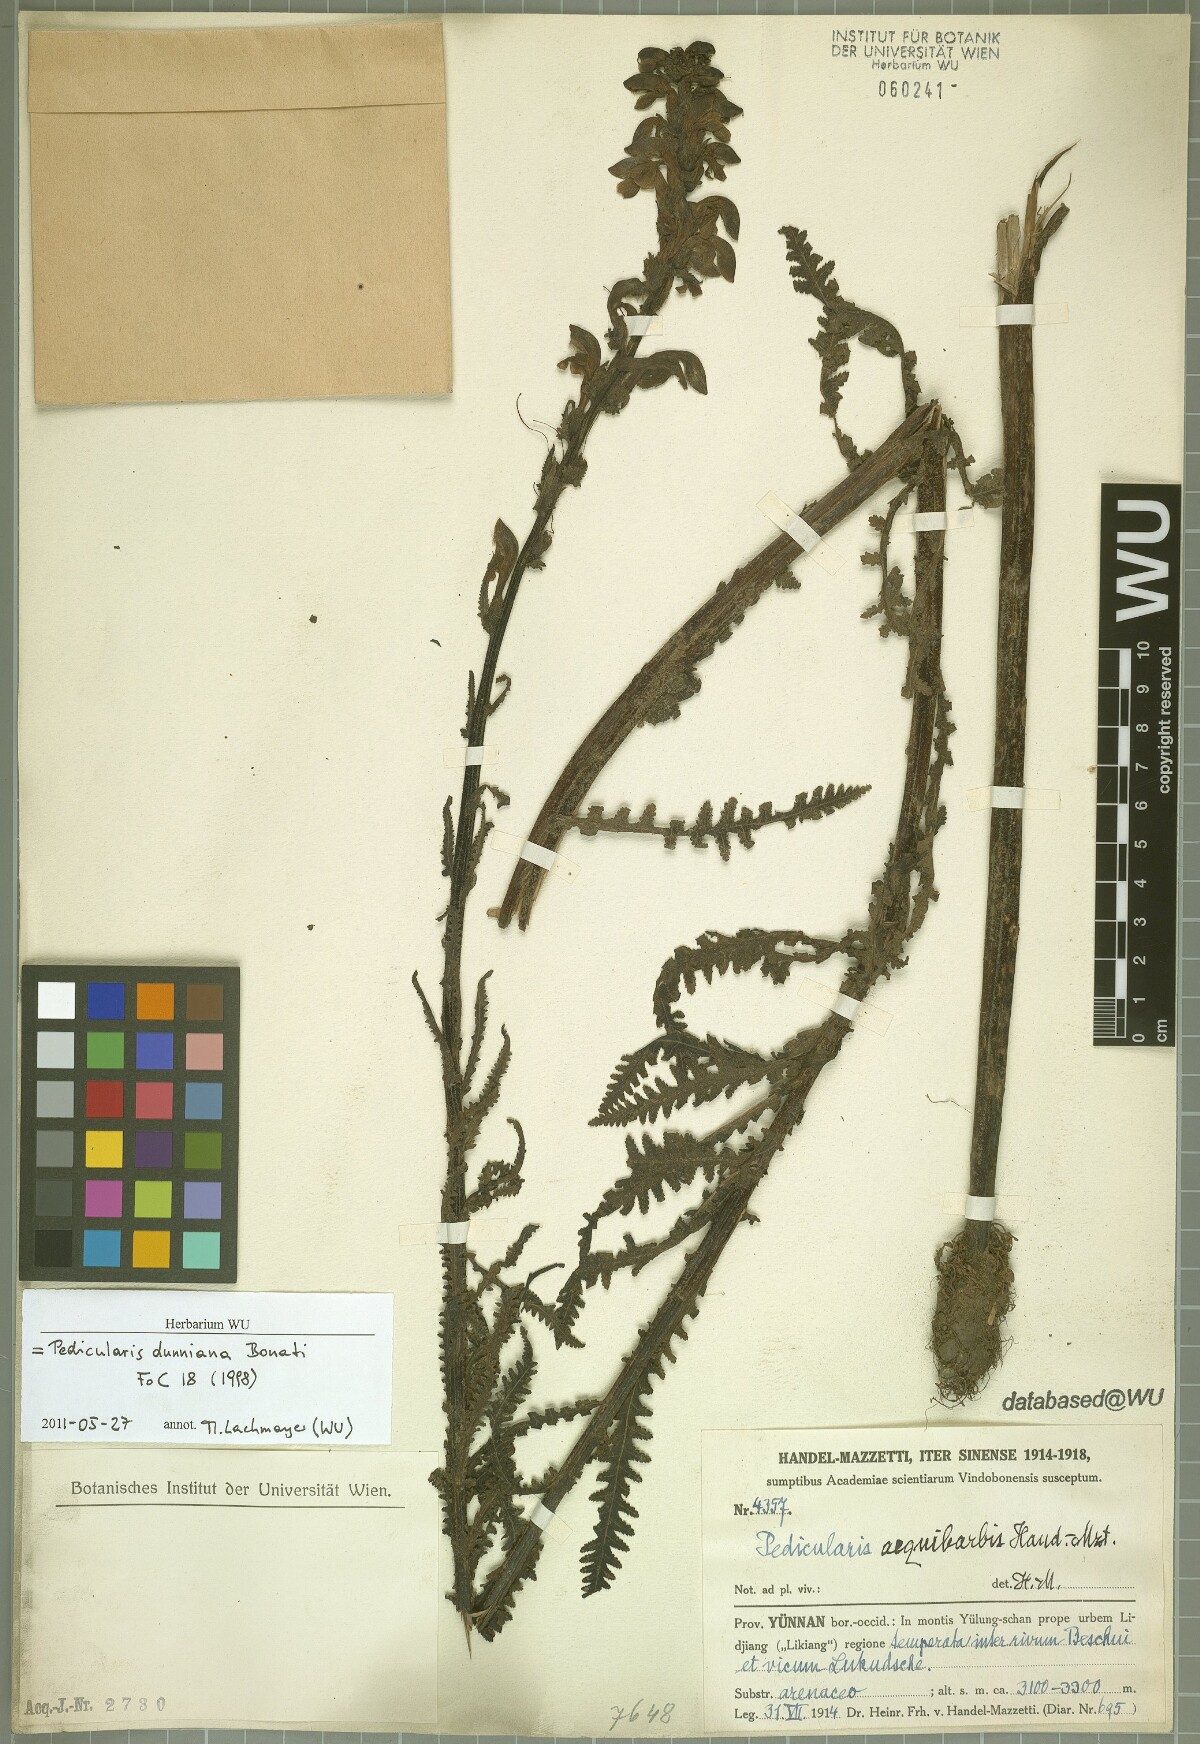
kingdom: Plantae
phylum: Tracheophyta
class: Magnoliopsida
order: Lamiales
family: Orobanchaceae
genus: Pedicularis
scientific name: Pedicularis dunniana
